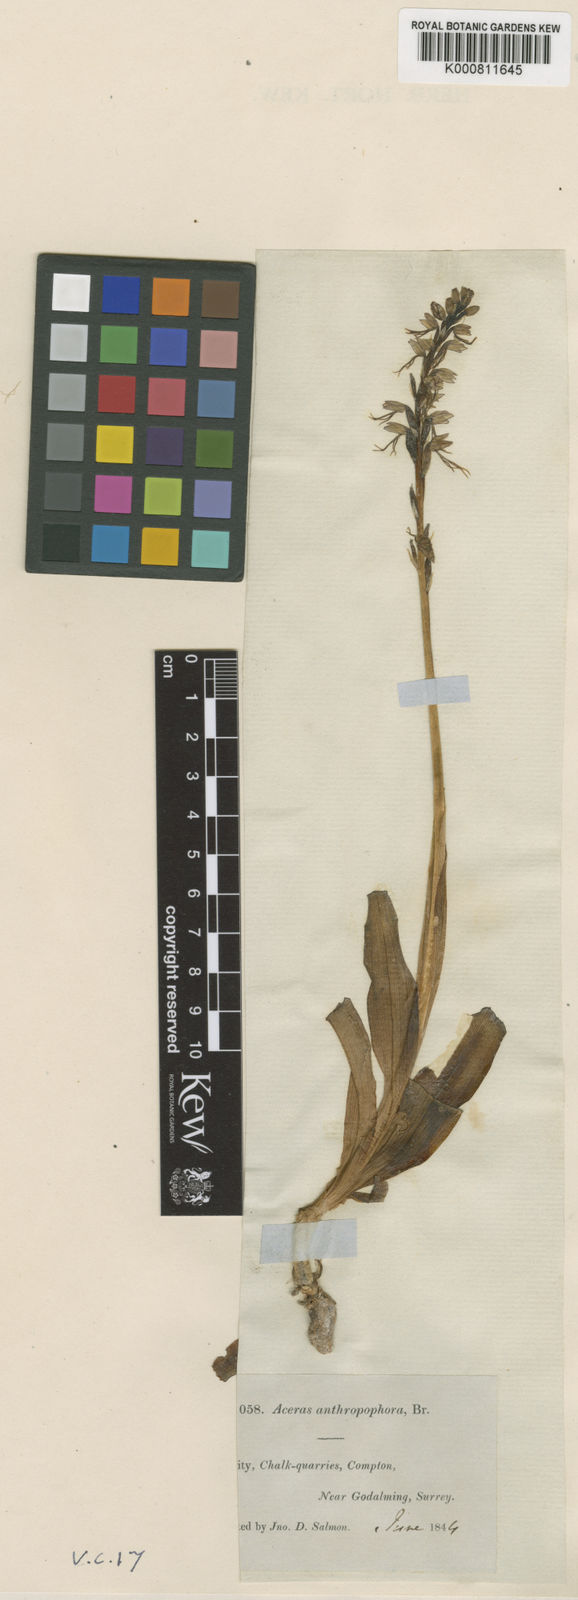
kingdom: Plantae
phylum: Tracheophyta
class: Liliopsida
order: Asparagales
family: Orchidaceae
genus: Orchis
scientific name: Orchis
